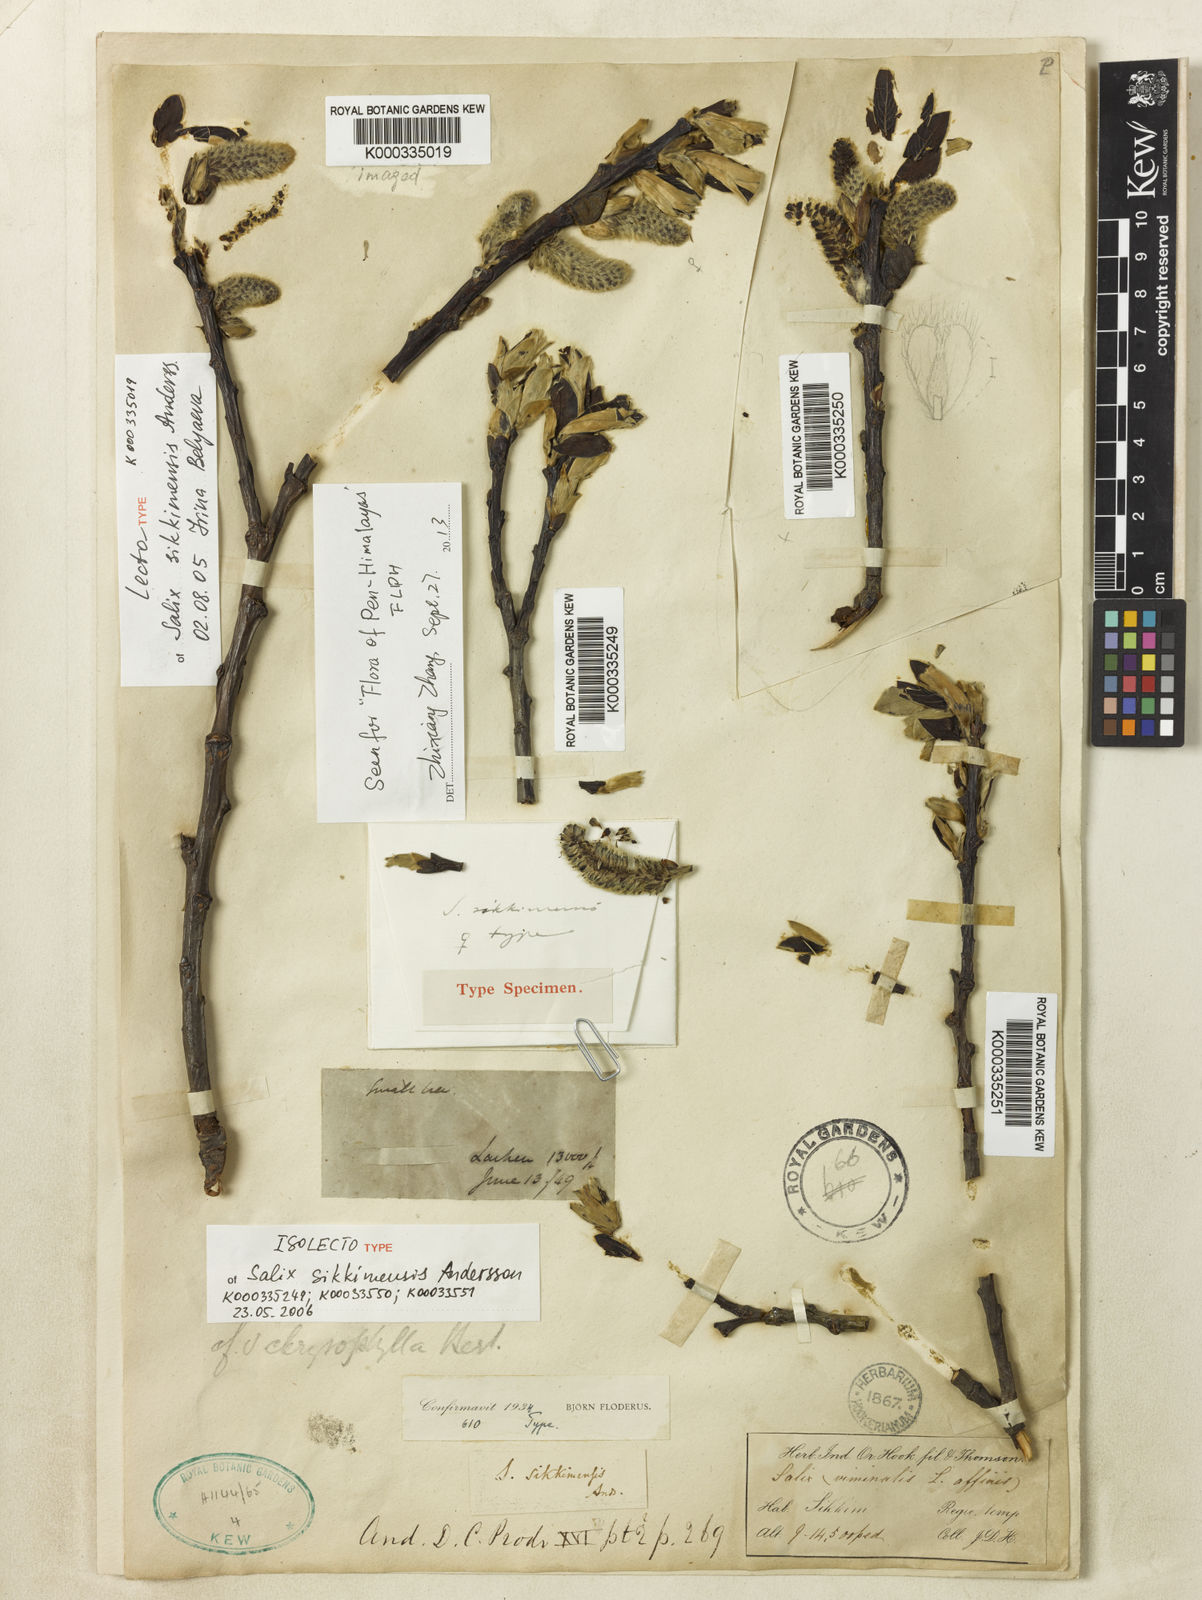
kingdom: Plantae
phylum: Tracheophyta
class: Magnoliopsida
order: Malpighiales
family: Salicaceae
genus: Salix
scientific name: Salix sikkimensis
